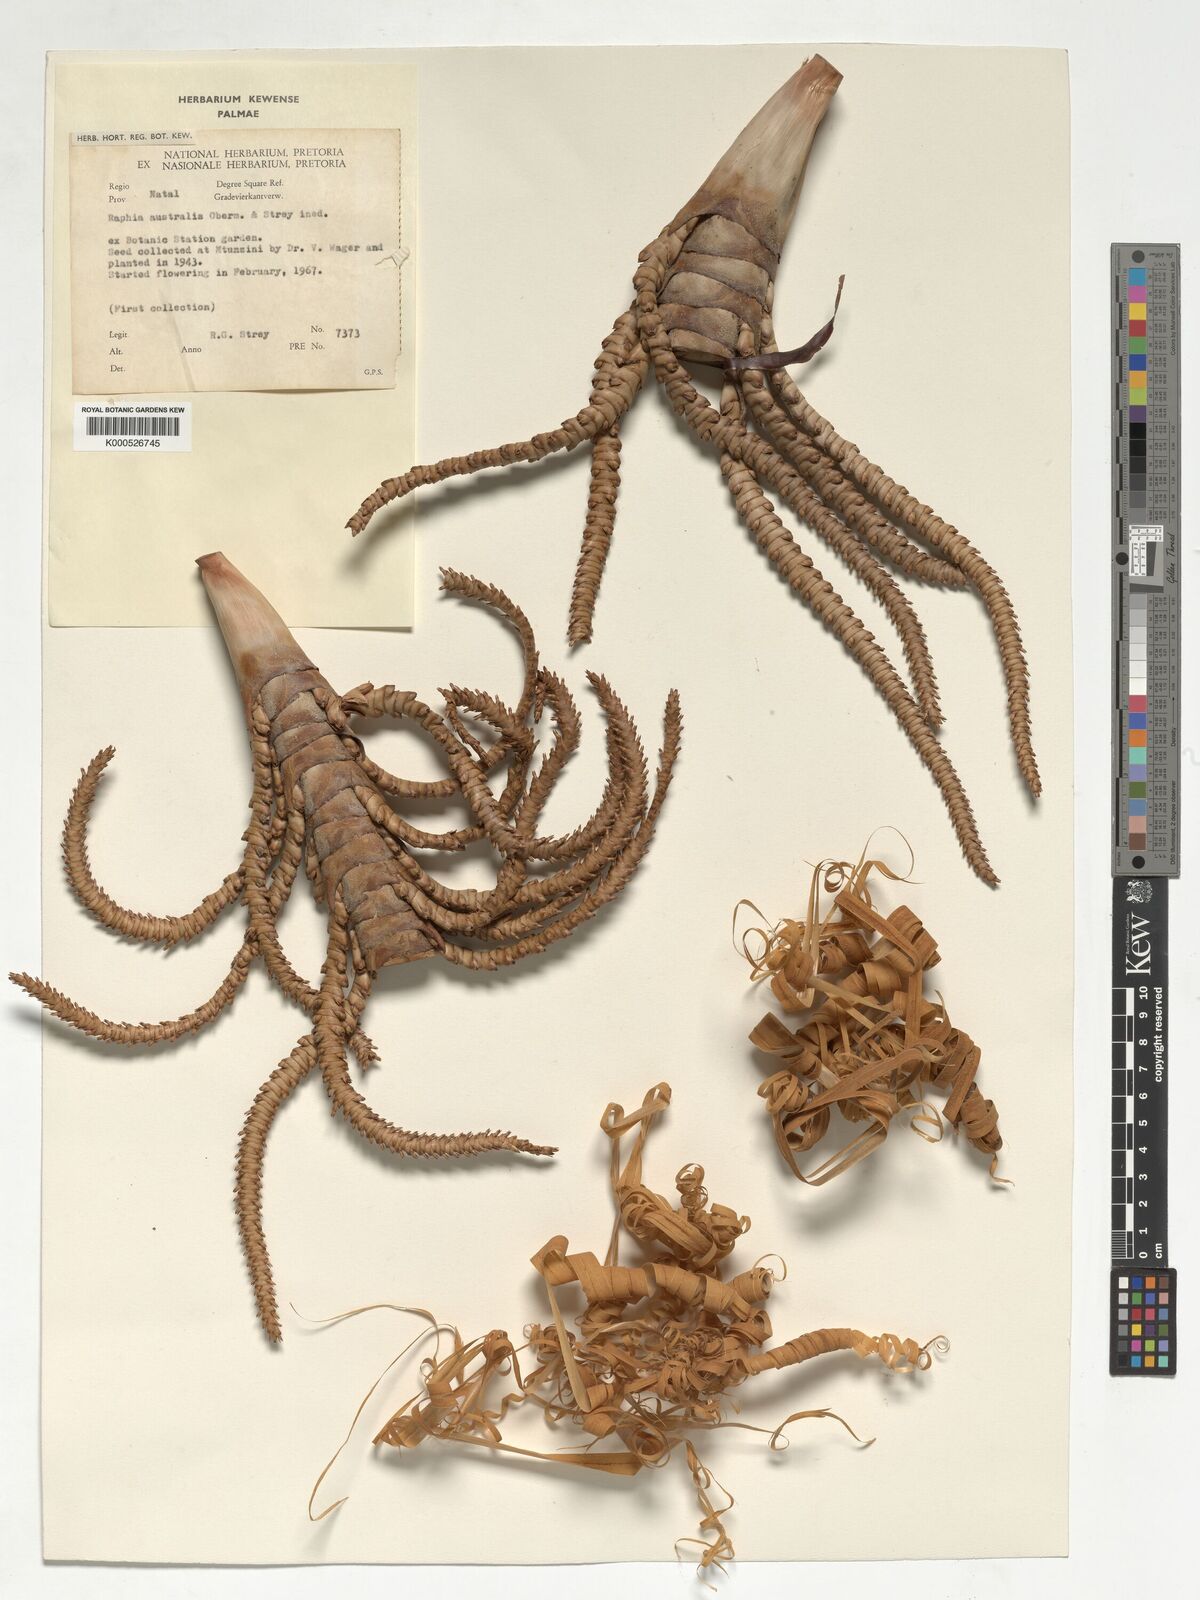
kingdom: Plantae
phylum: Tracheophyta
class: Liliopsida
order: Arecales
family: Arecaceae
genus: Raphia
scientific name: Raphia australis
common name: Giant palm
